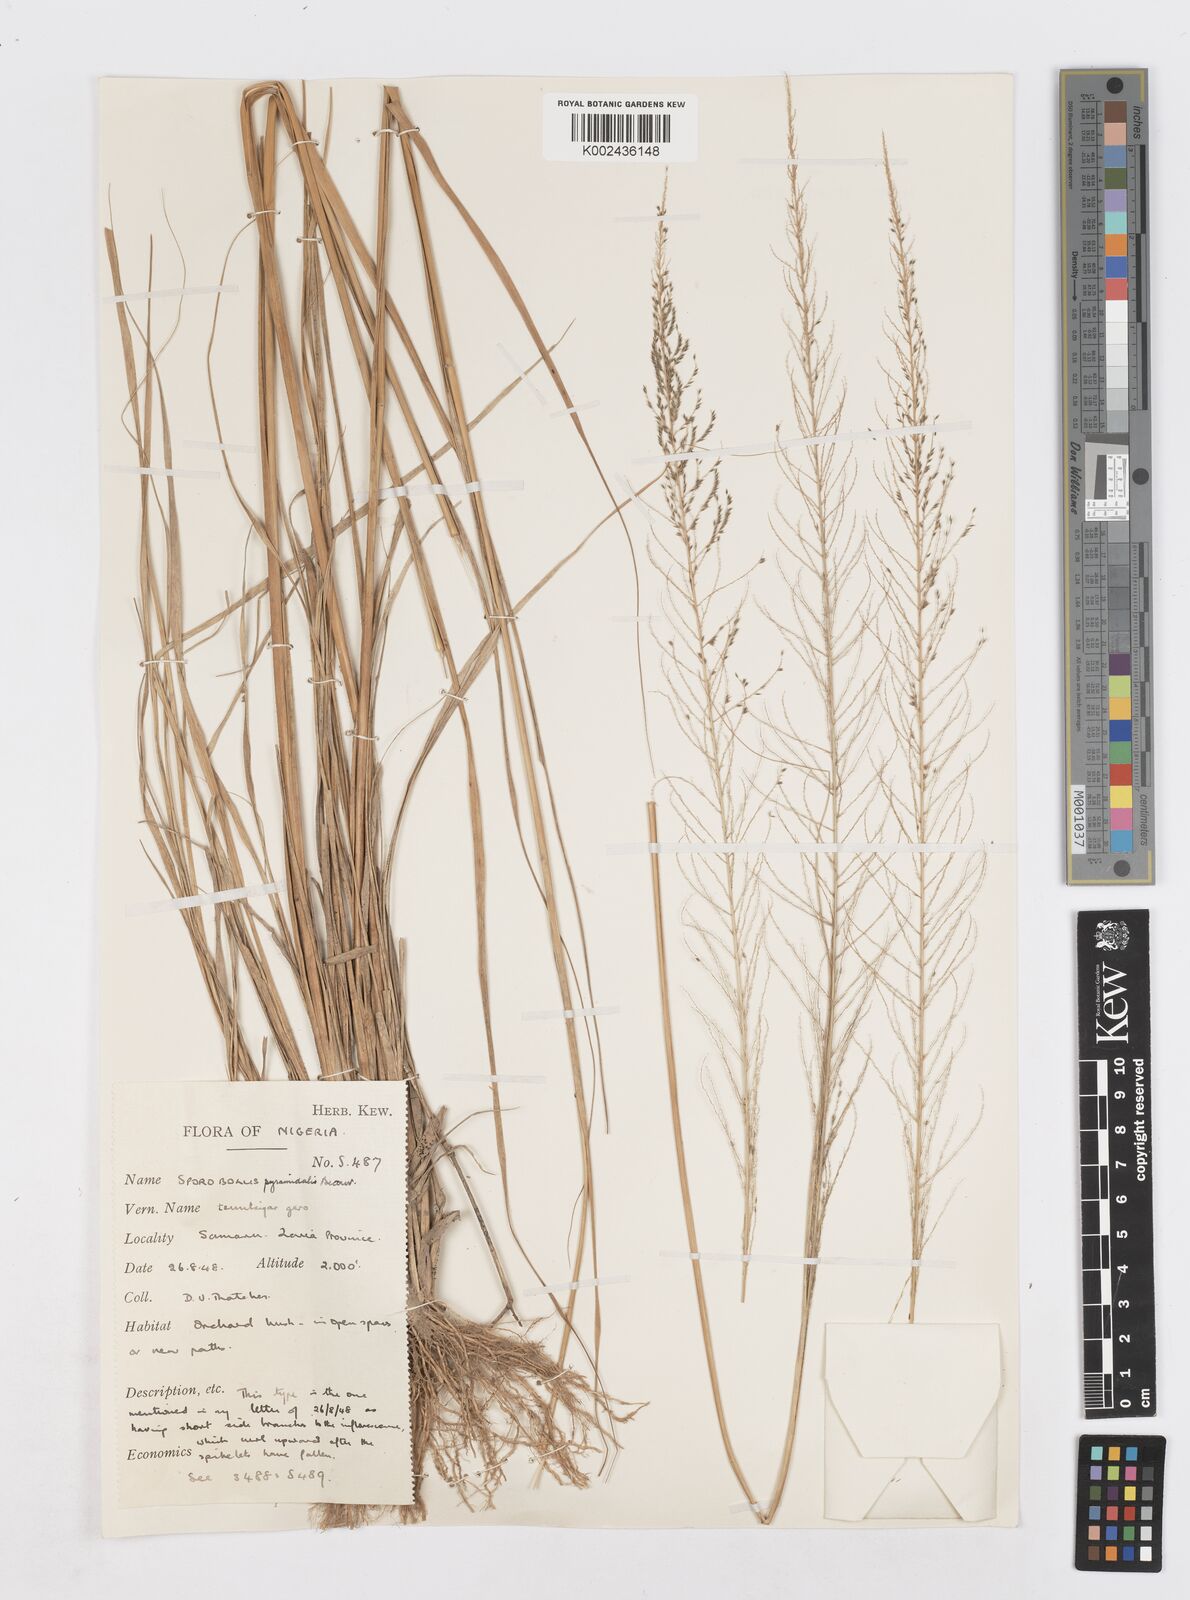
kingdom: Plantae
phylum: Tracheophyta
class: Liliopsida
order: Poales
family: Poaceae
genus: Sporobolus
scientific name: Sporobolus pyramidalis
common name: West indian dropseed
